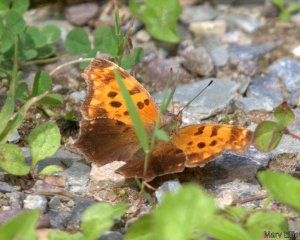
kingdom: Animalia
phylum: Arthropoda
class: Insecta
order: Lepidoptera
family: Nymphalidae
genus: Polygonia
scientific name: Polygonia comma
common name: Eastern Comma
